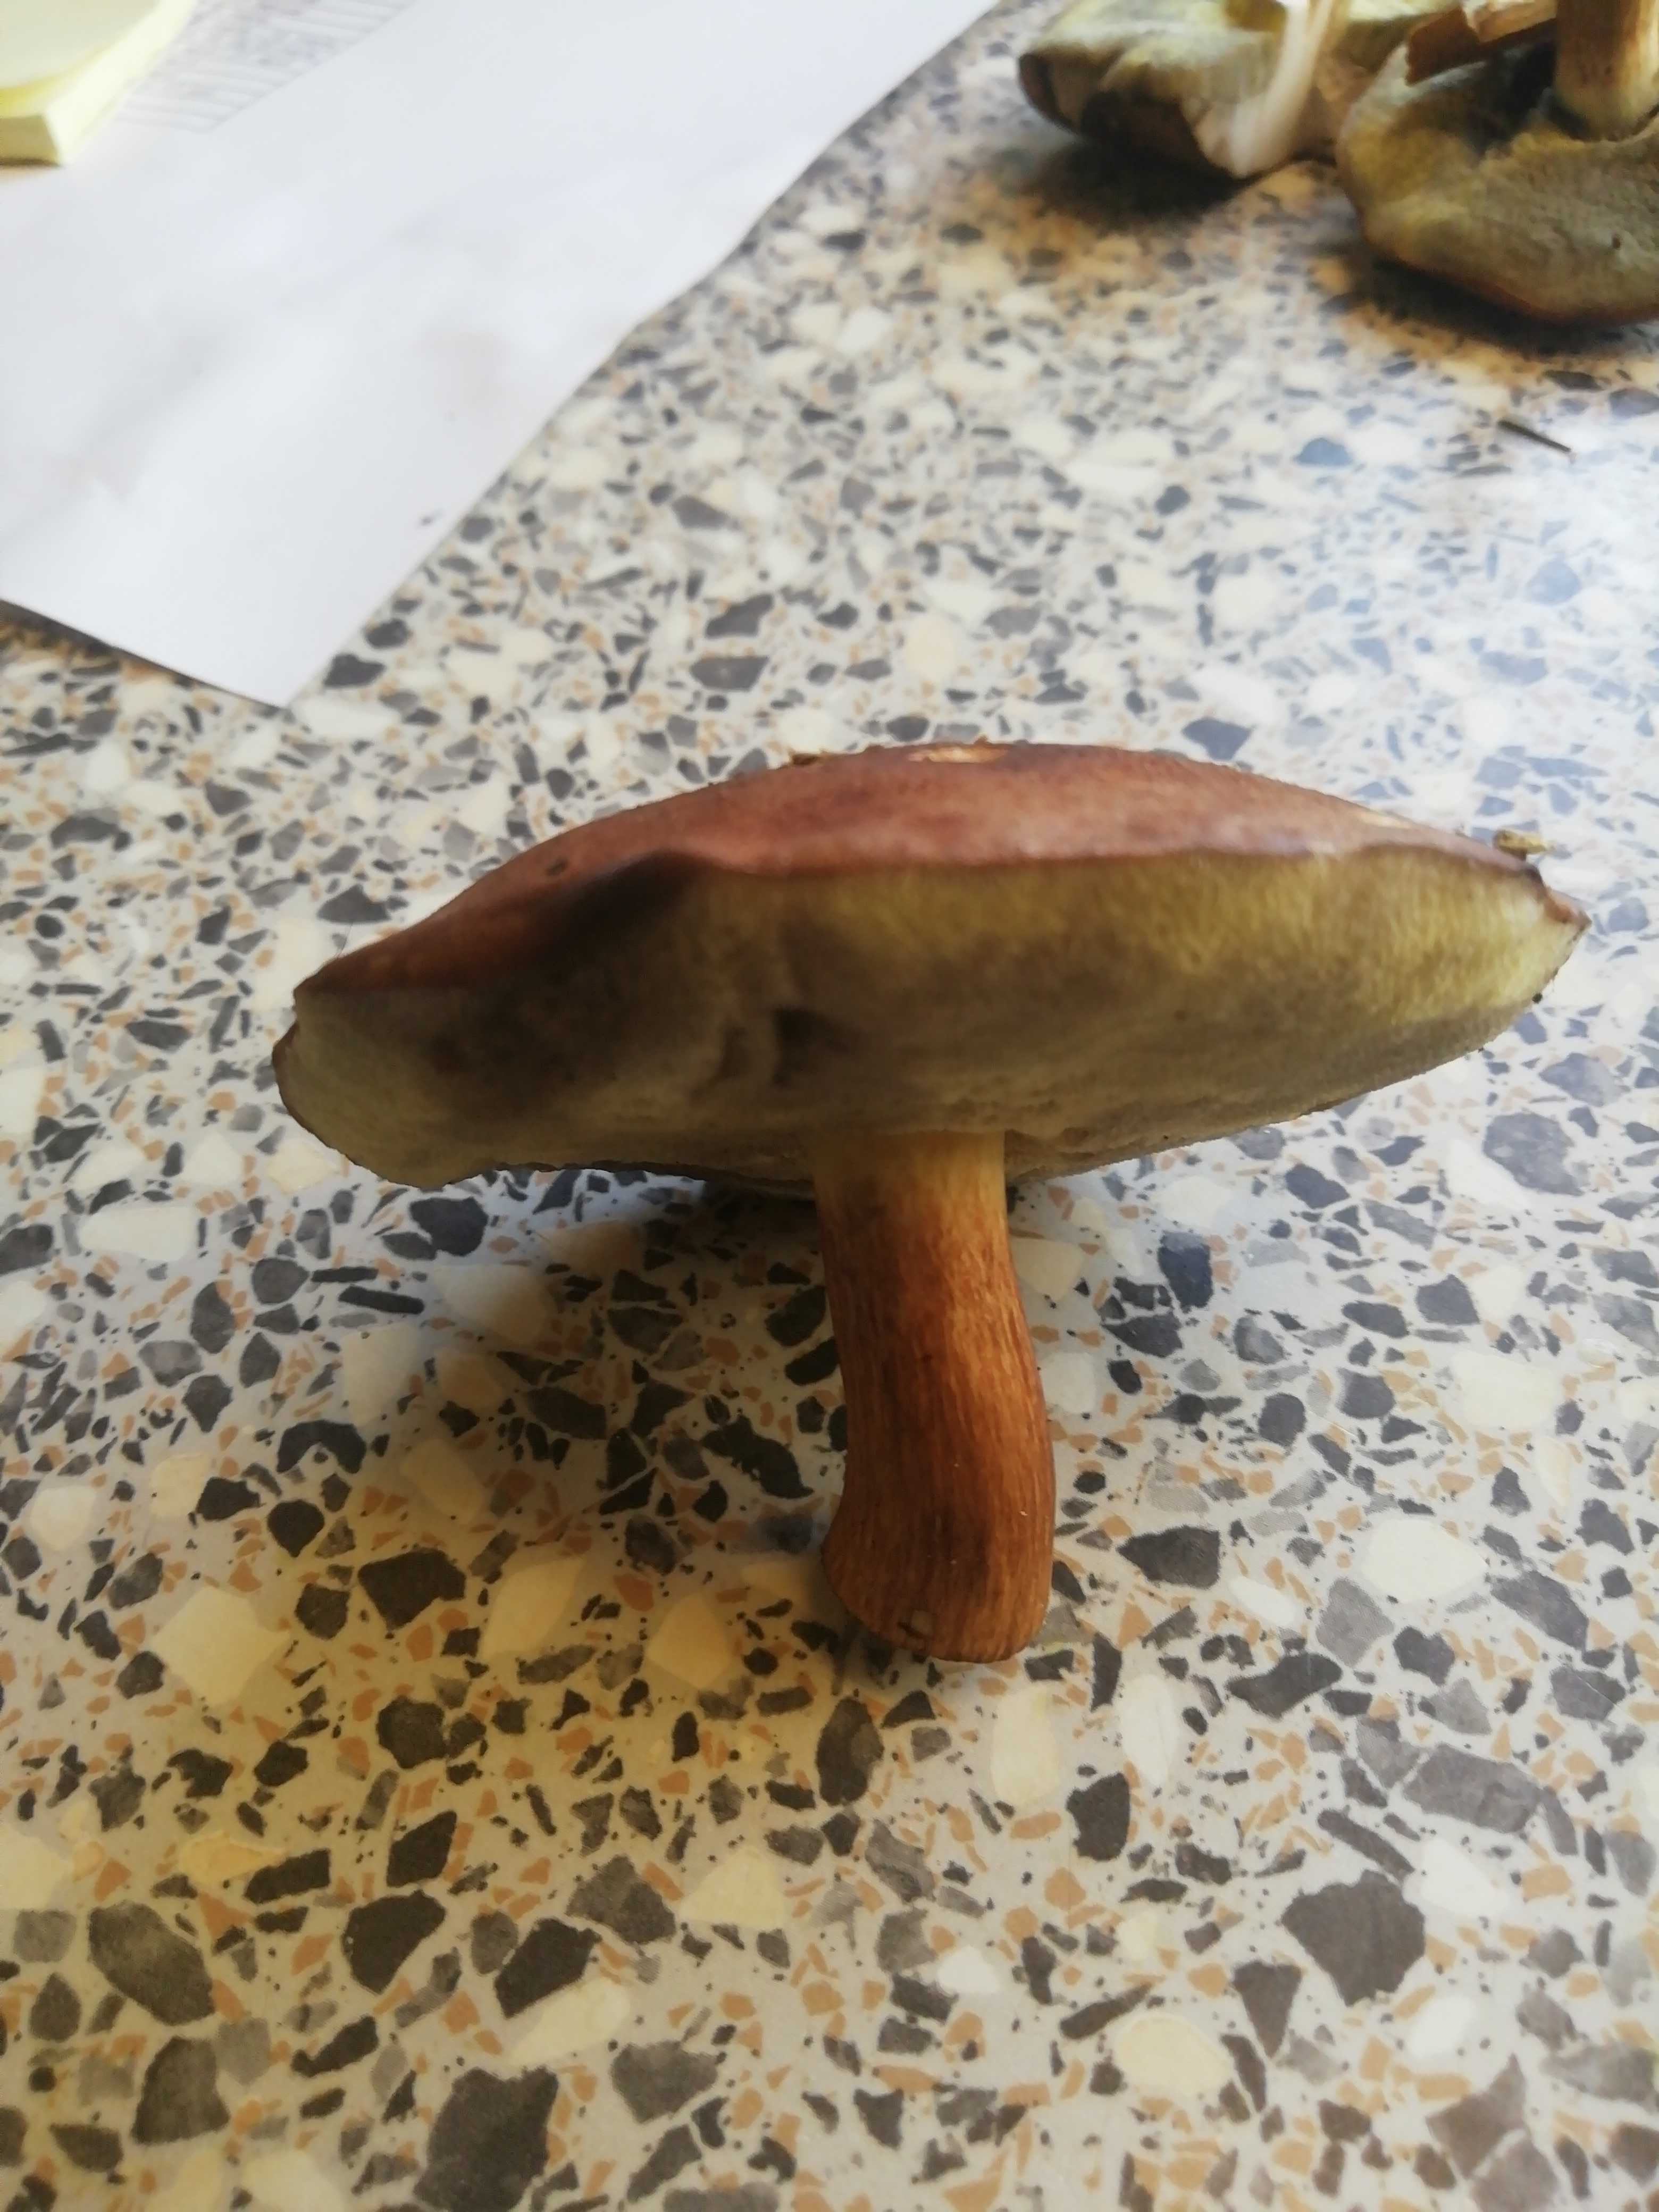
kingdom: Fungi
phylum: Basidiomycota
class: Agaricomycetes
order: Boletales
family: Boletaceae
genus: Imleria
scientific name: Imleria badia
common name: brunstokket rørhat
